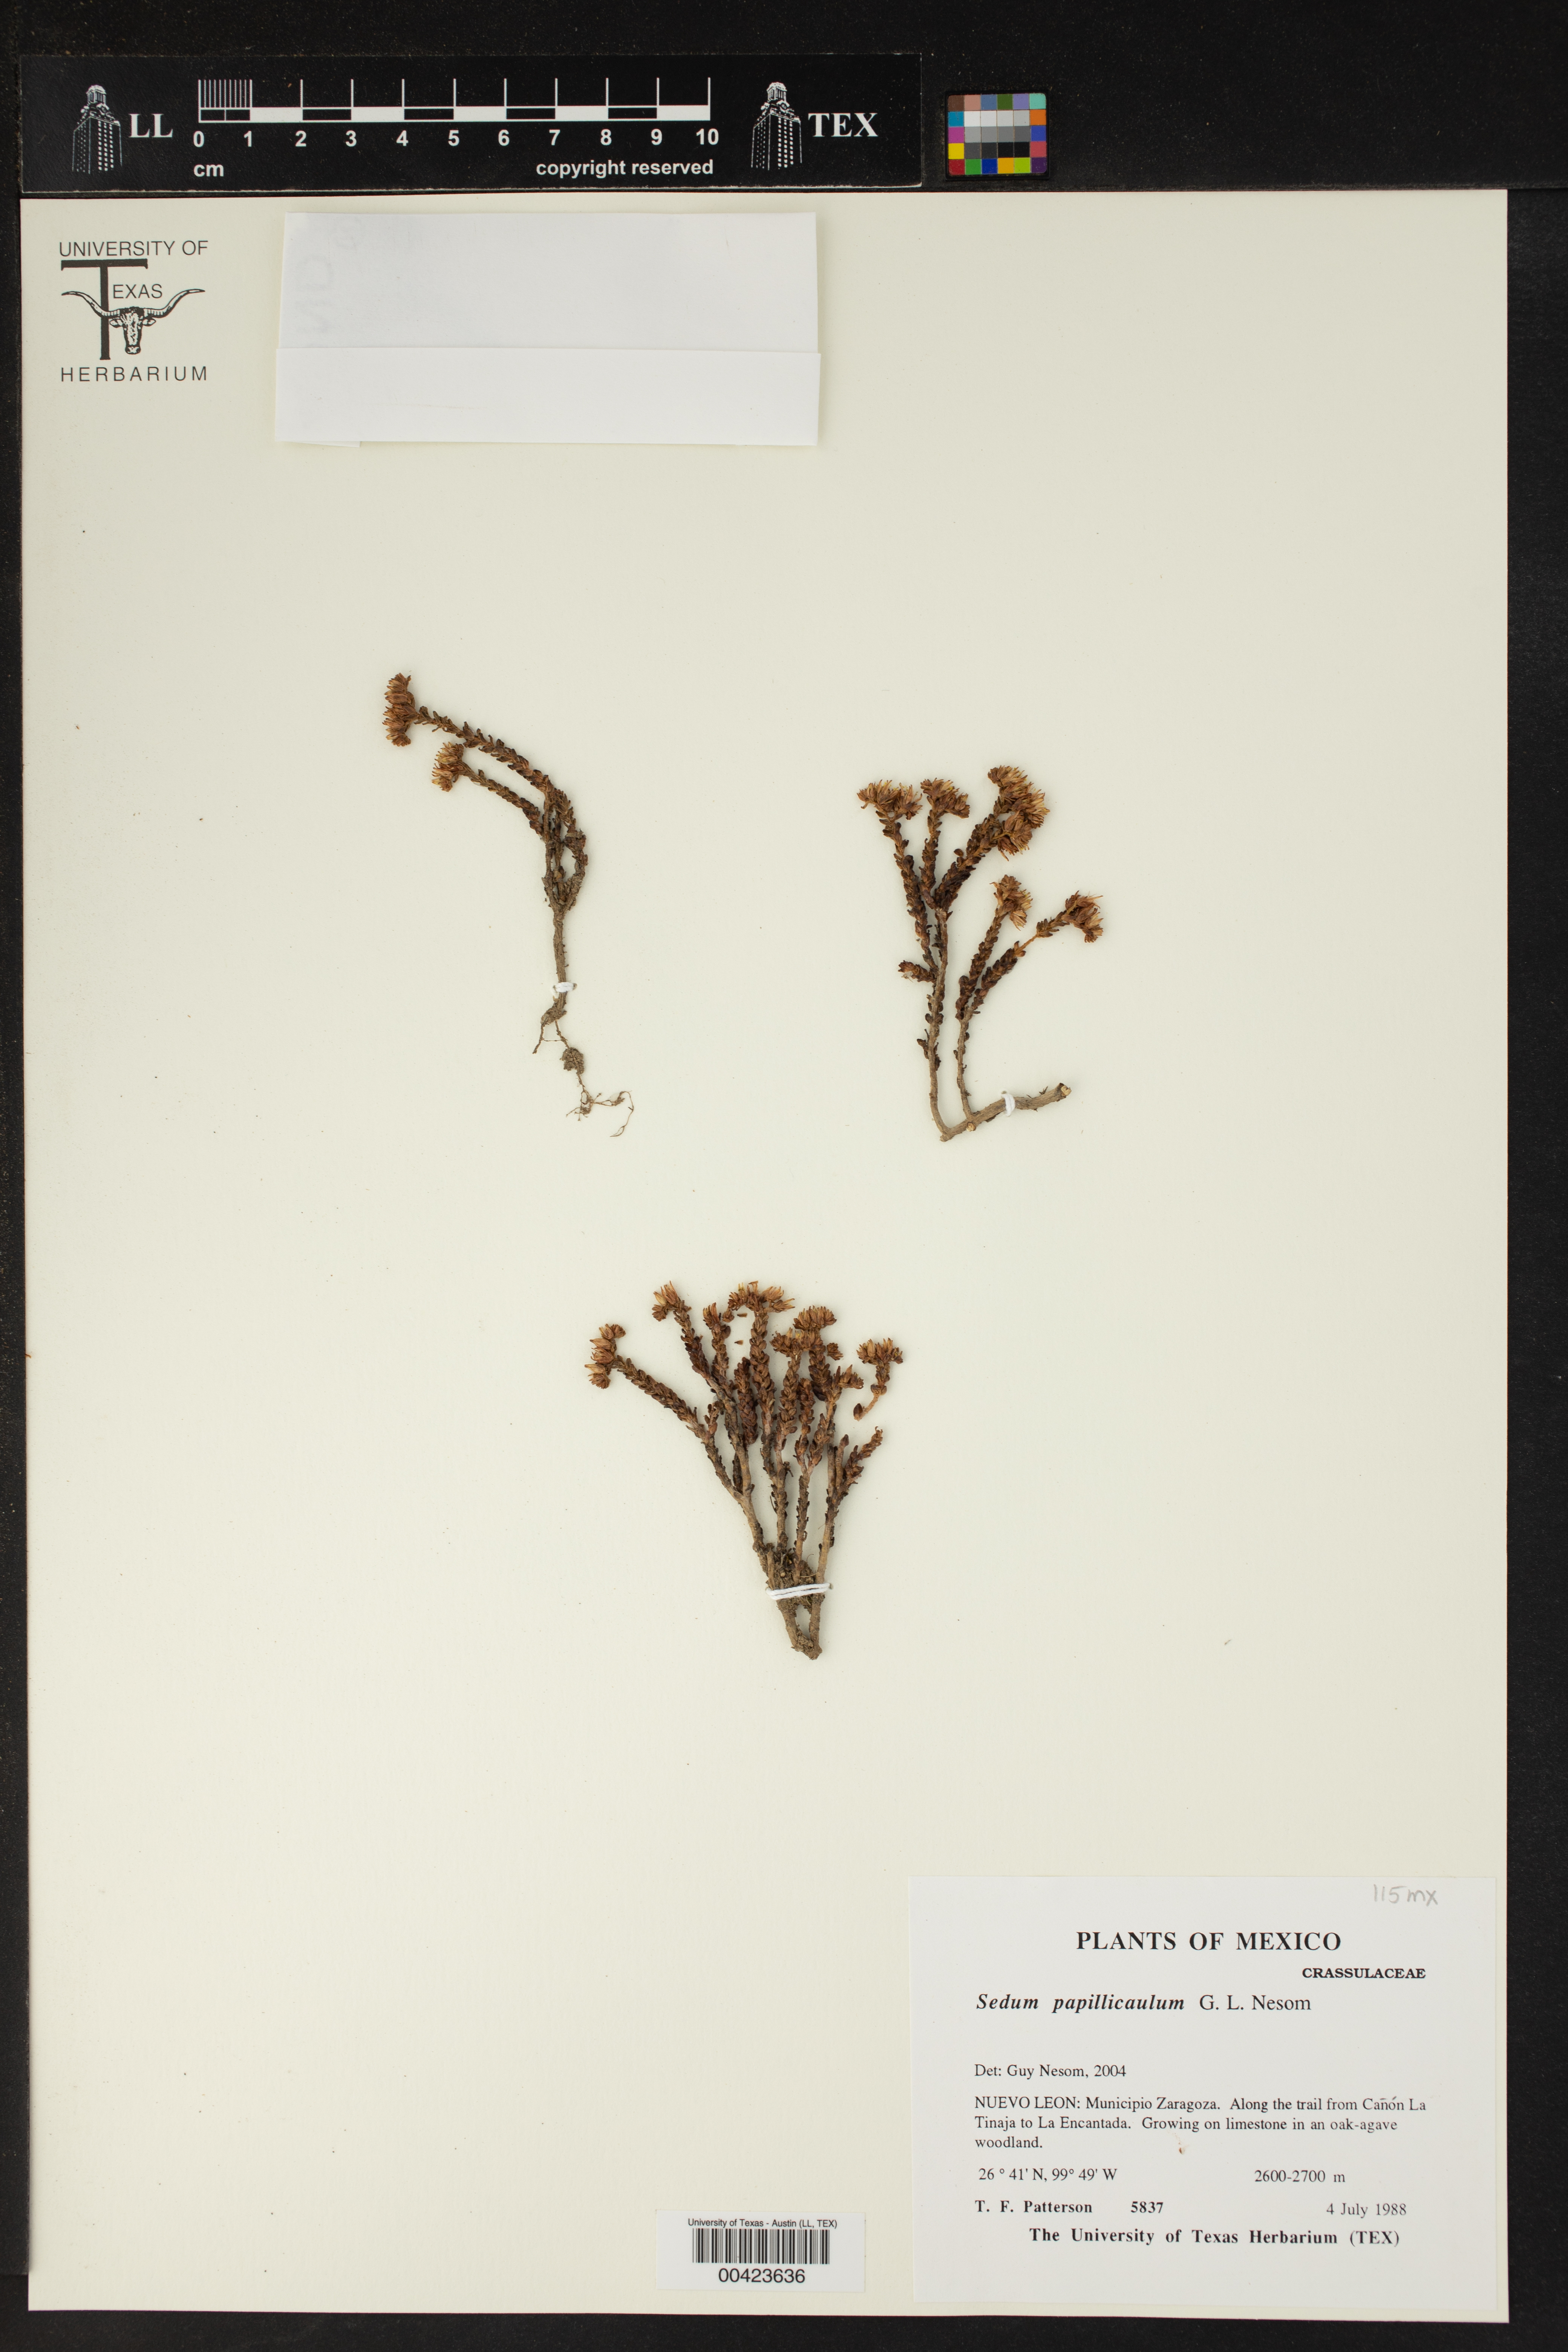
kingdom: Plantae
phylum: Tracheophyta
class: Magnoliopsida
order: Saxifragales
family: Crassulaceae
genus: Sedum
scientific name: Sedum papillicaulum
